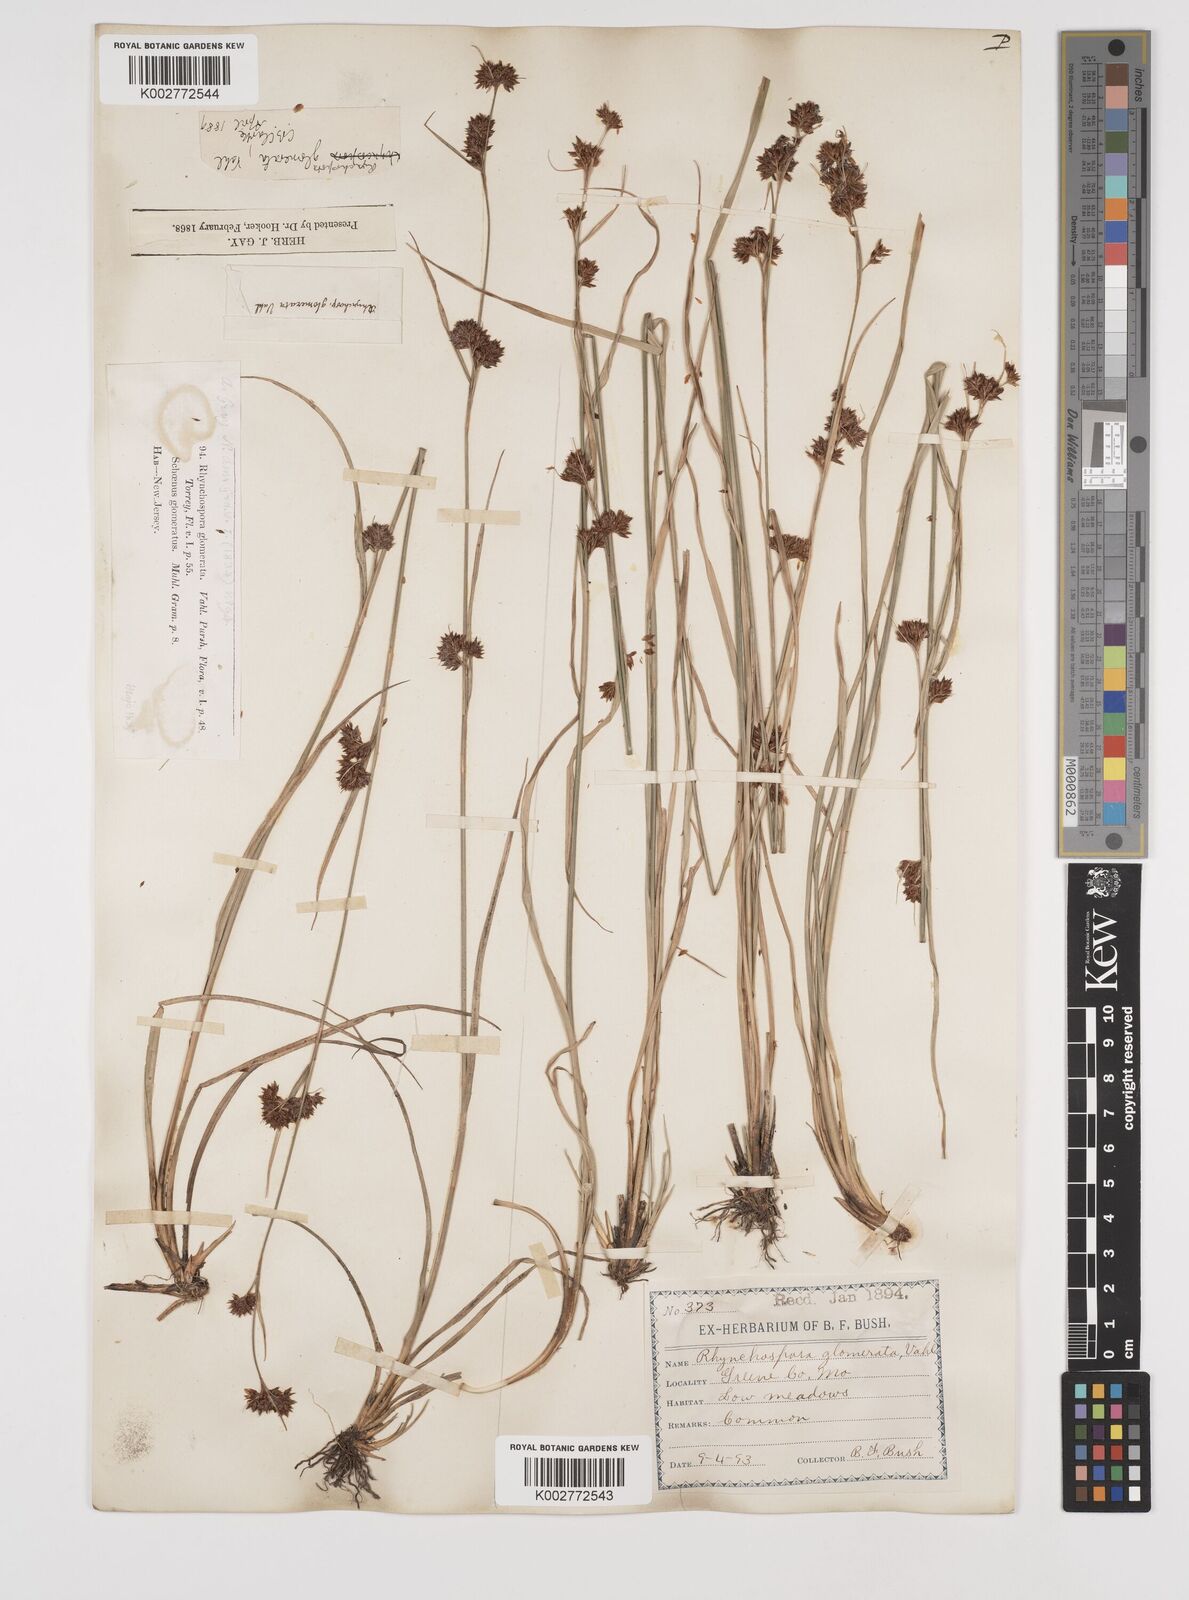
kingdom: Plantae
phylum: Tracheophyta
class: Liliopsida
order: Poales
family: Cyperaceae
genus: Rhynchospora
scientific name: Rhynchospora glomerata
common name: Cluster beak sedge
